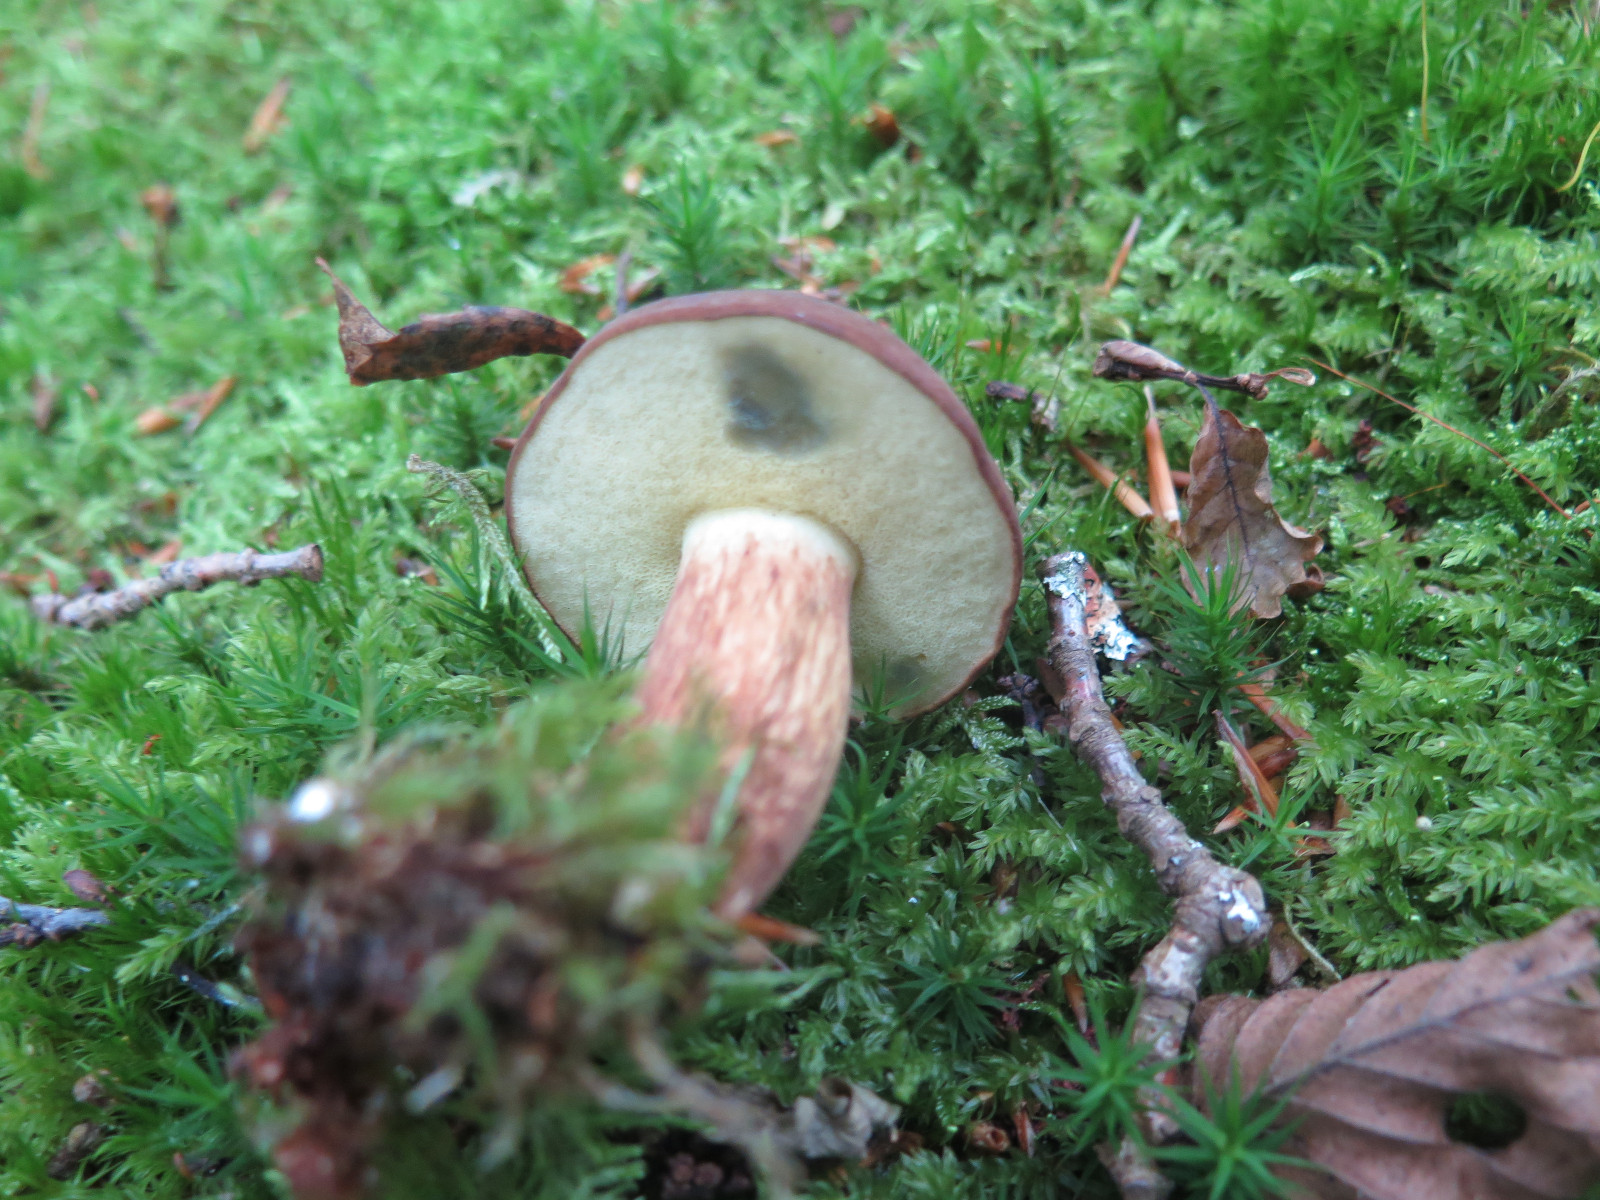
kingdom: Fungi
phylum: Basidiomycota
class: Agaricomycetes
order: Boletales
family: Boletaceae
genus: Imleria
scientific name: Imleria badia
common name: brunstokket rørhat
